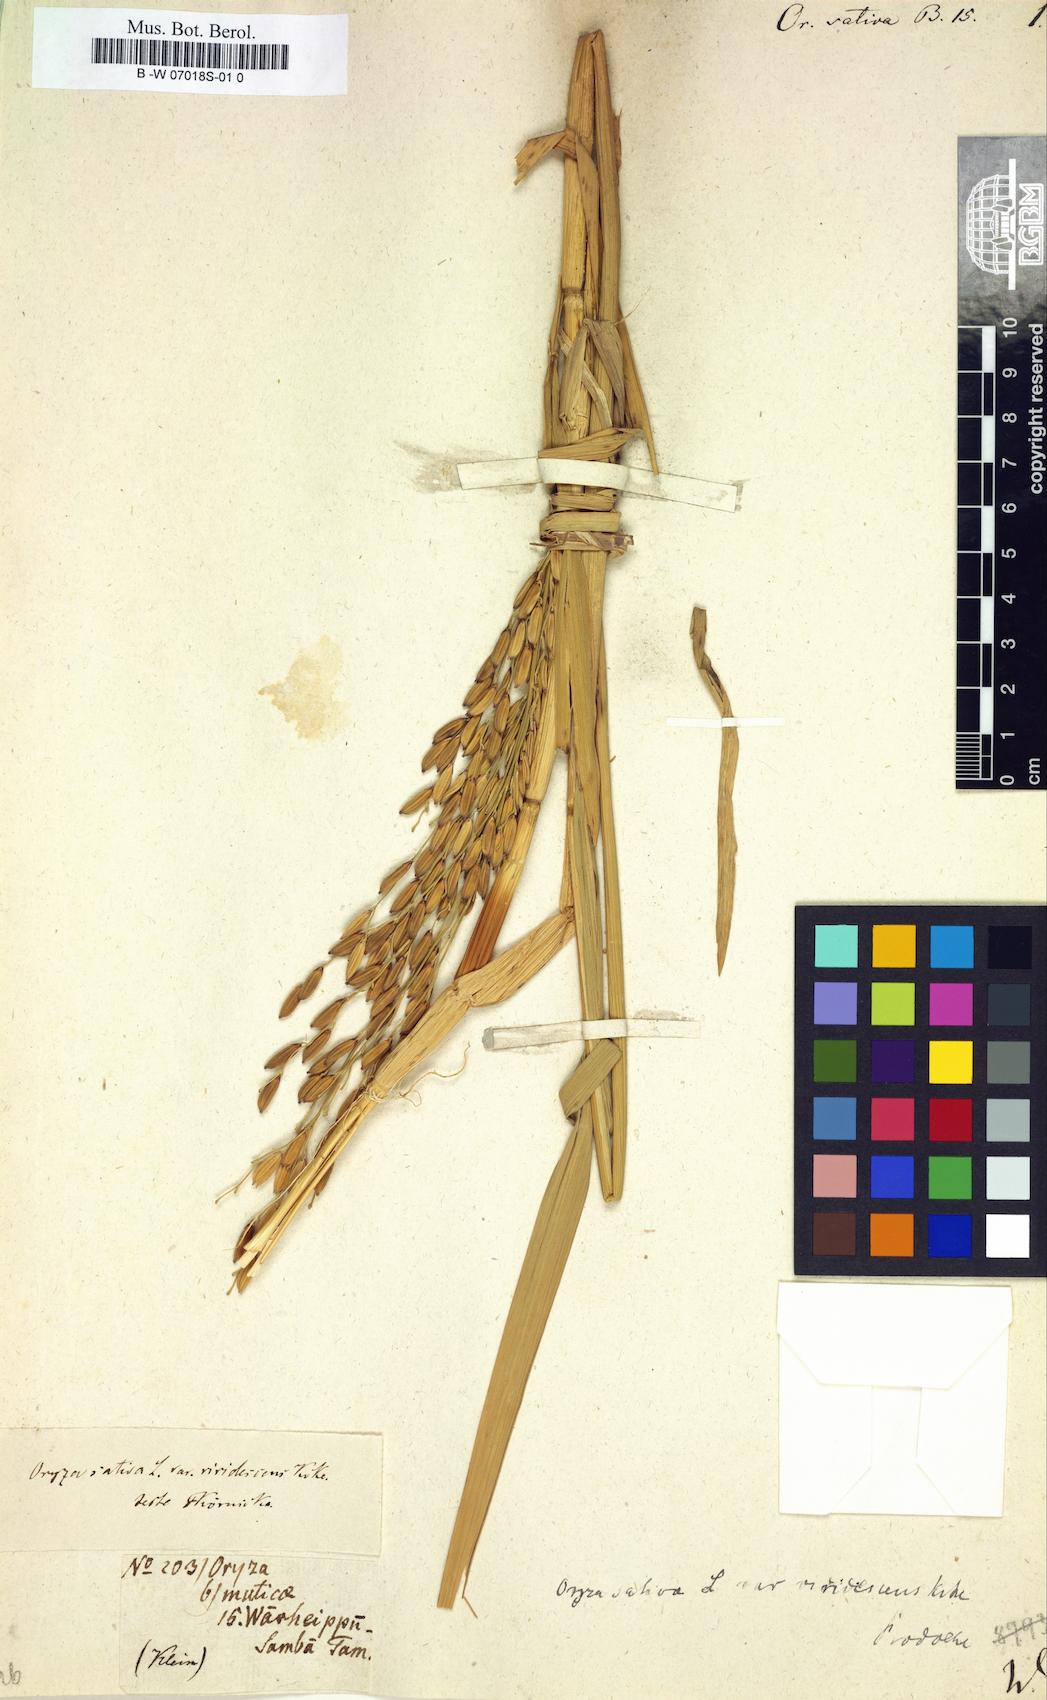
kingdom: Plantae
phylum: Tracheophyta
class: Liliopsida
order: Poales
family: Poaceae
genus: Oryza
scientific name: Oryza sativa
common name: Rice
